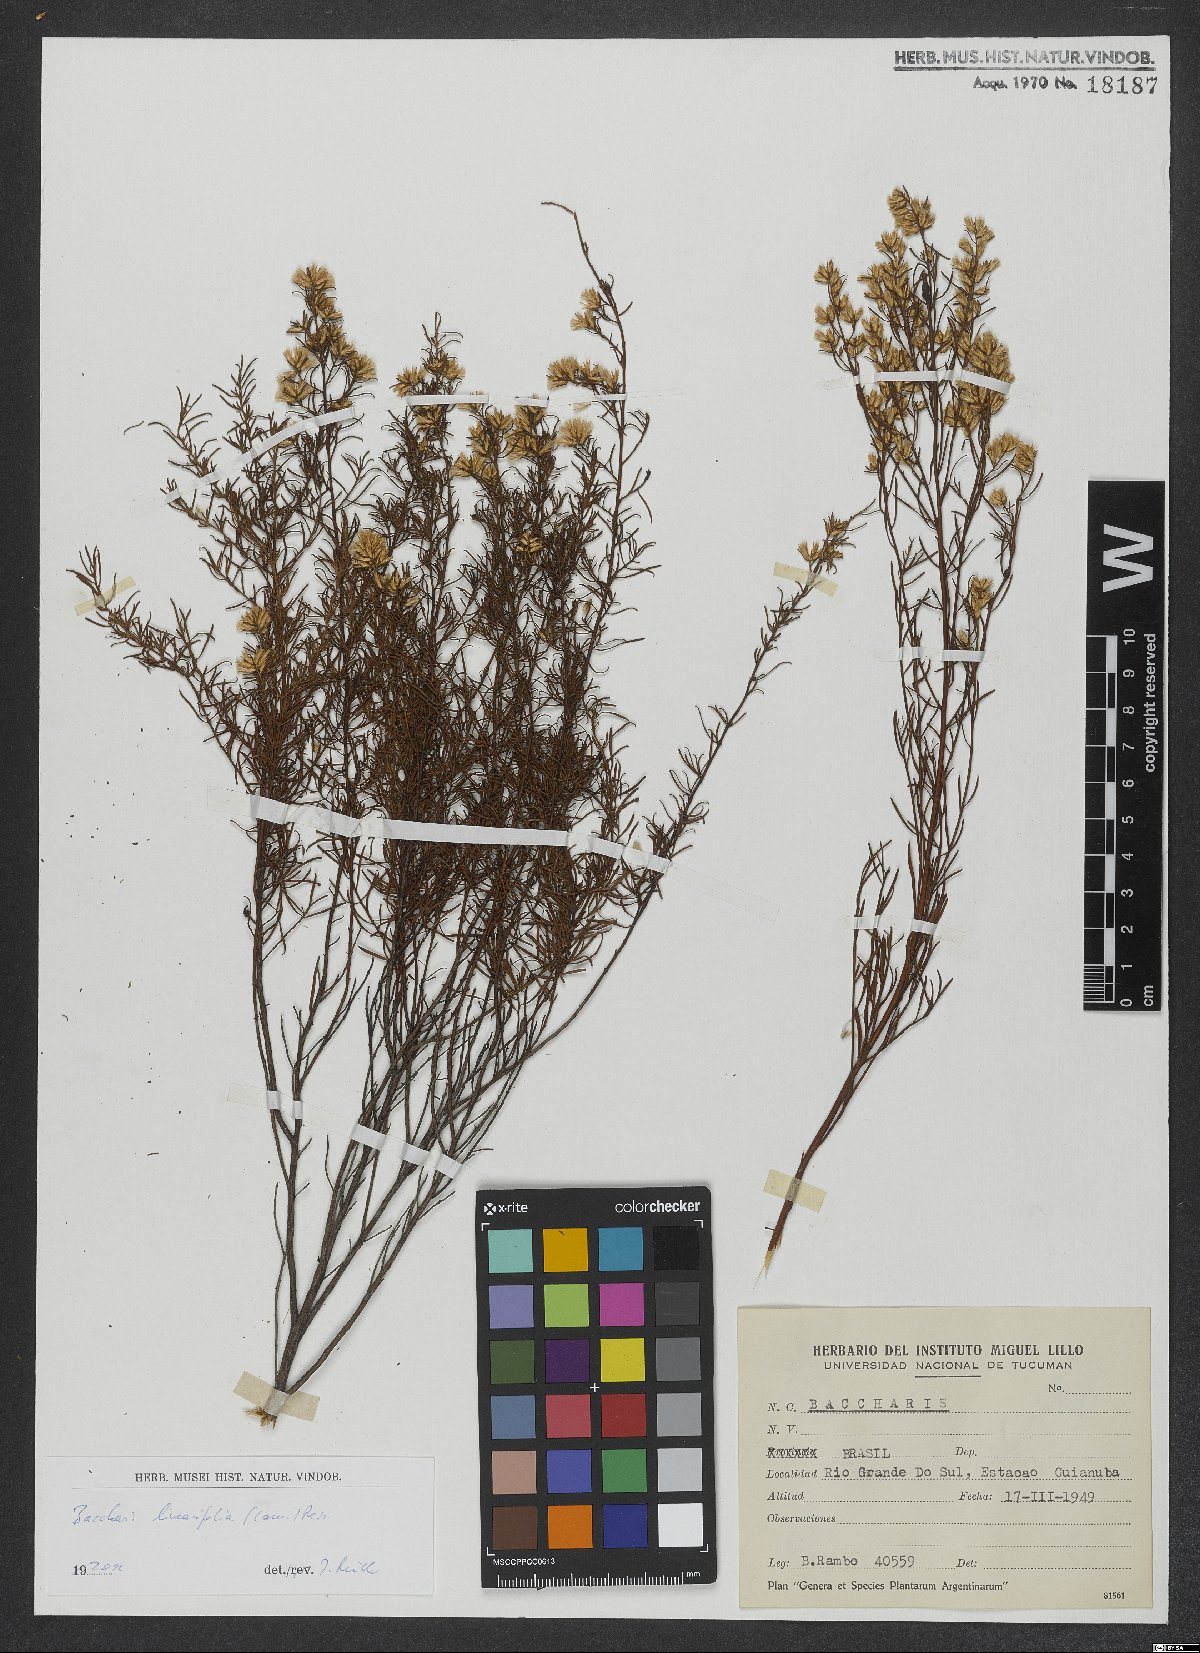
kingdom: Plantae
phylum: Tracheophyta
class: Magnoliopsida
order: Asterales
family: Asteraceae
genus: Baccharis
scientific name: Baccharis linearifolia
